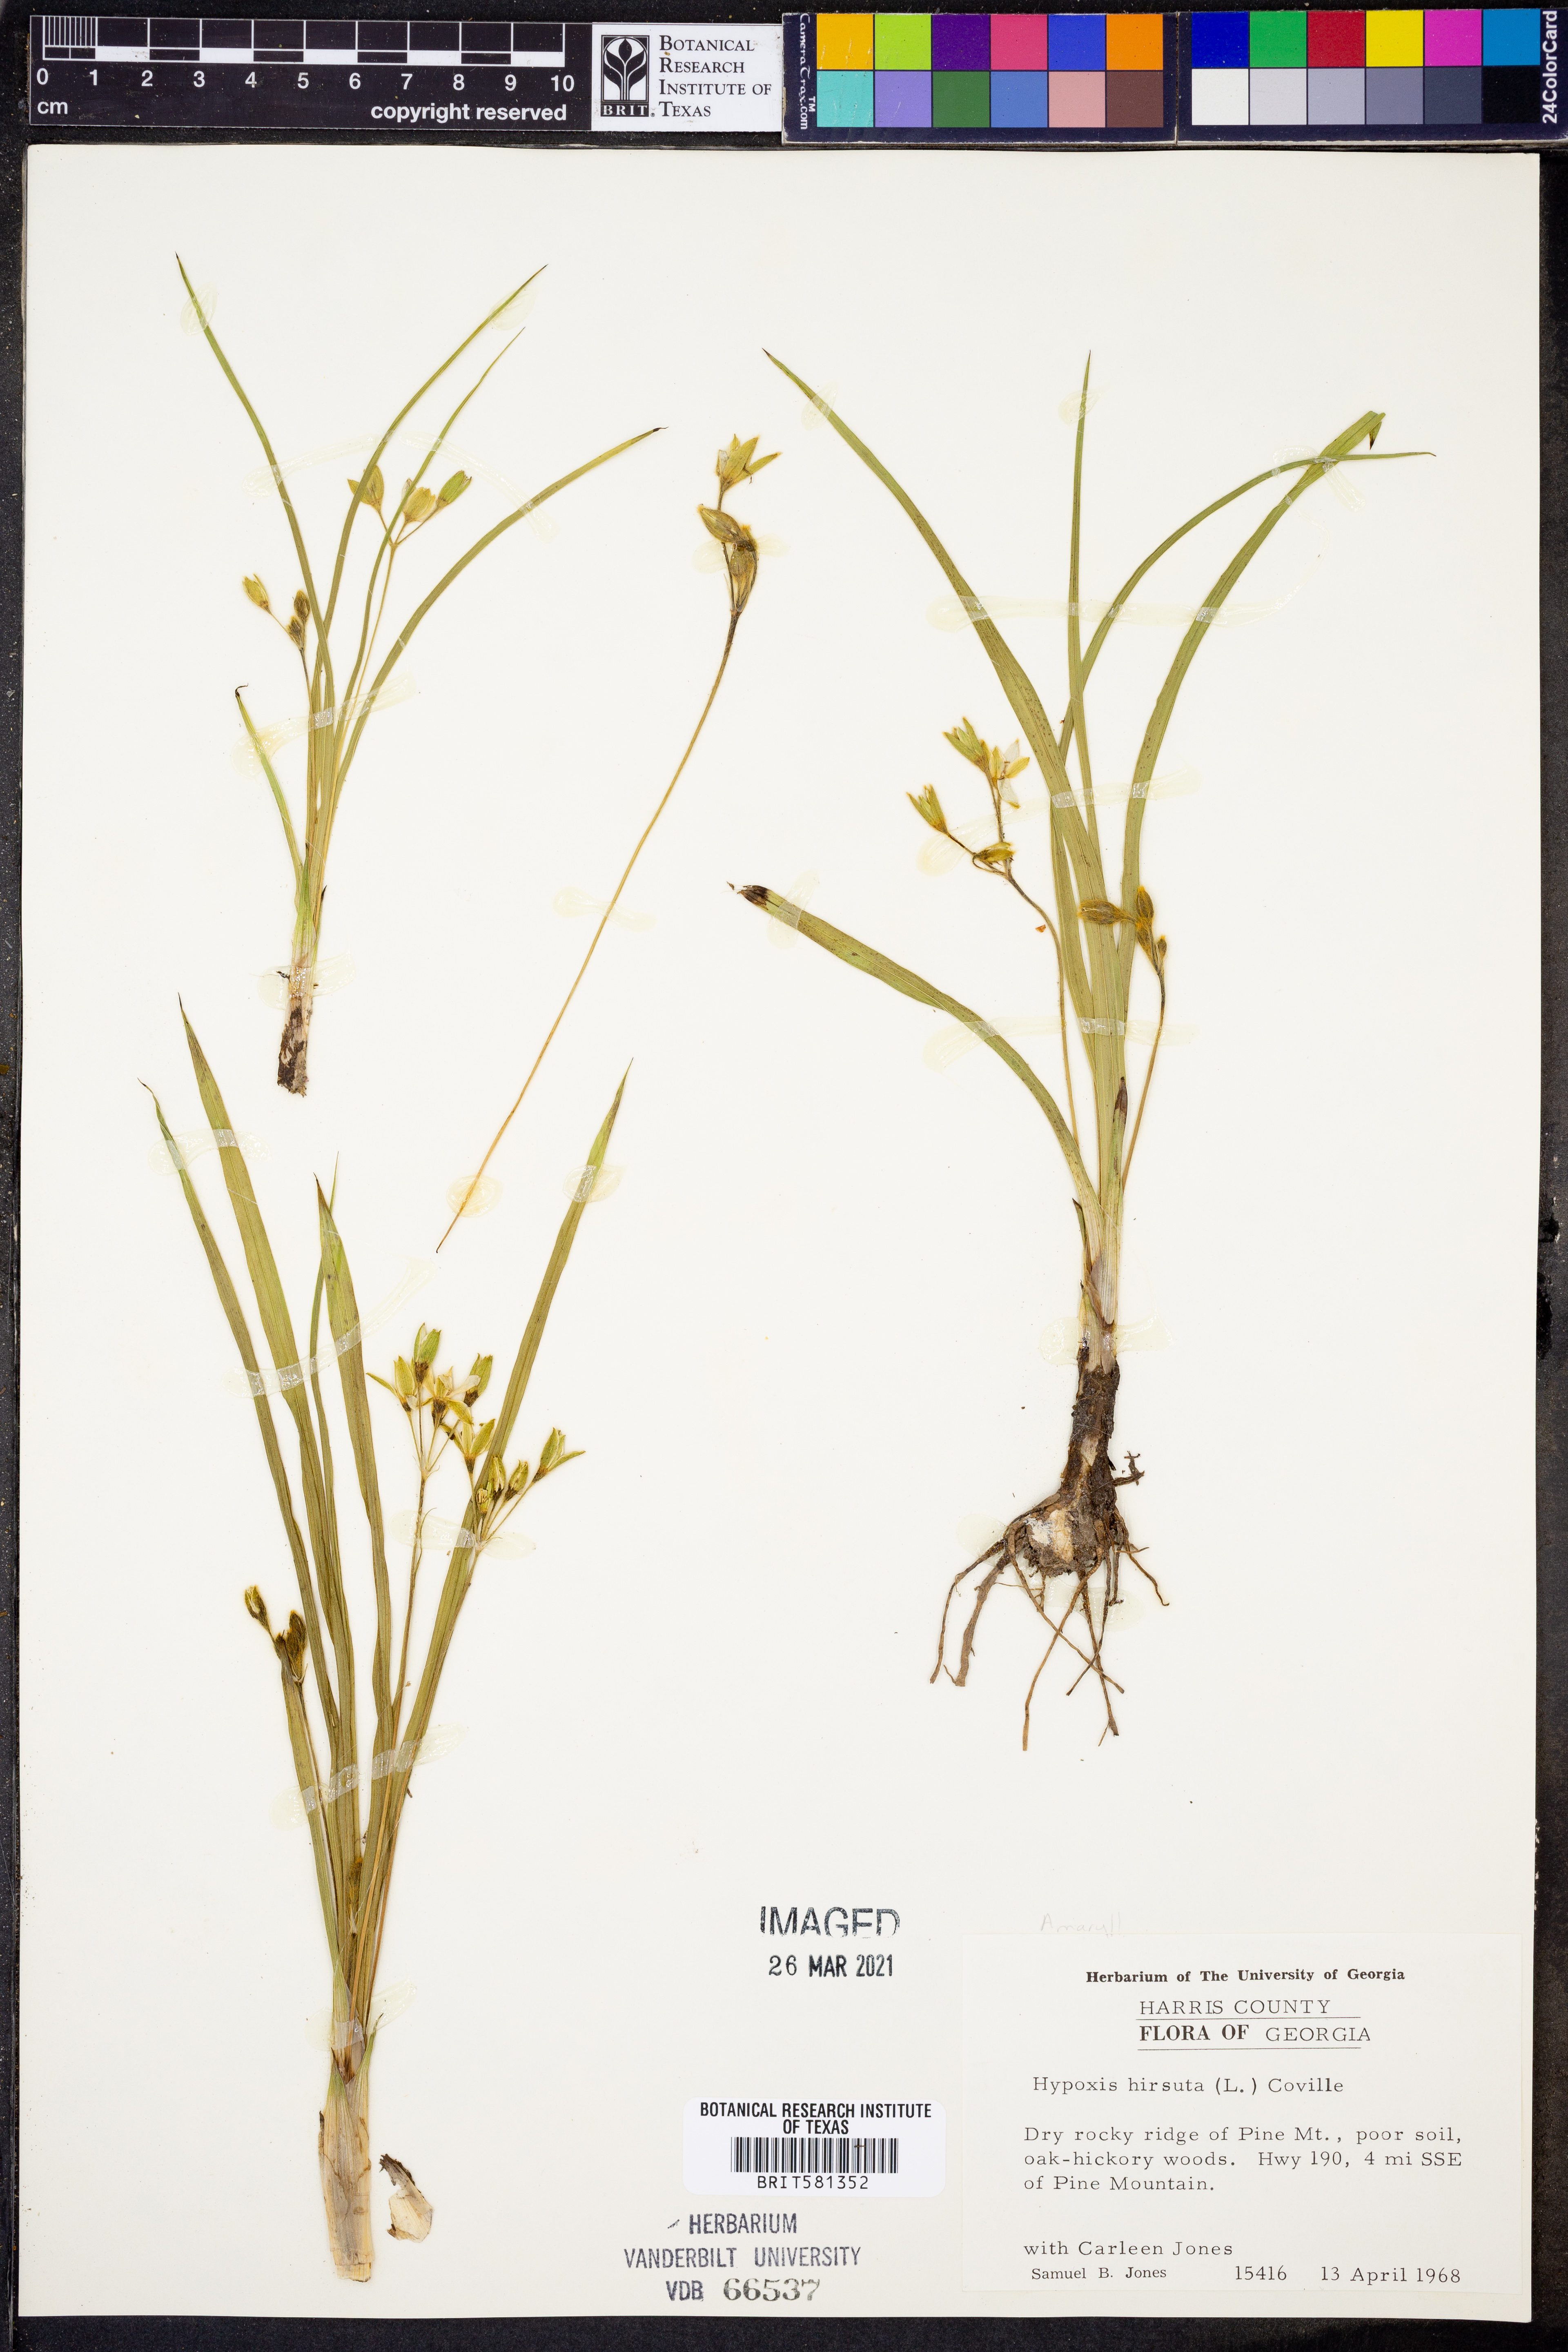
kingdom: Plantae
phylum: Tracheophyta
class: Liliopsida
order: Asparagales
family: Hypoxidaceae
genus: Hypoxis
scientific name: Hypoxis hirsuta
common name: Common goldstar
